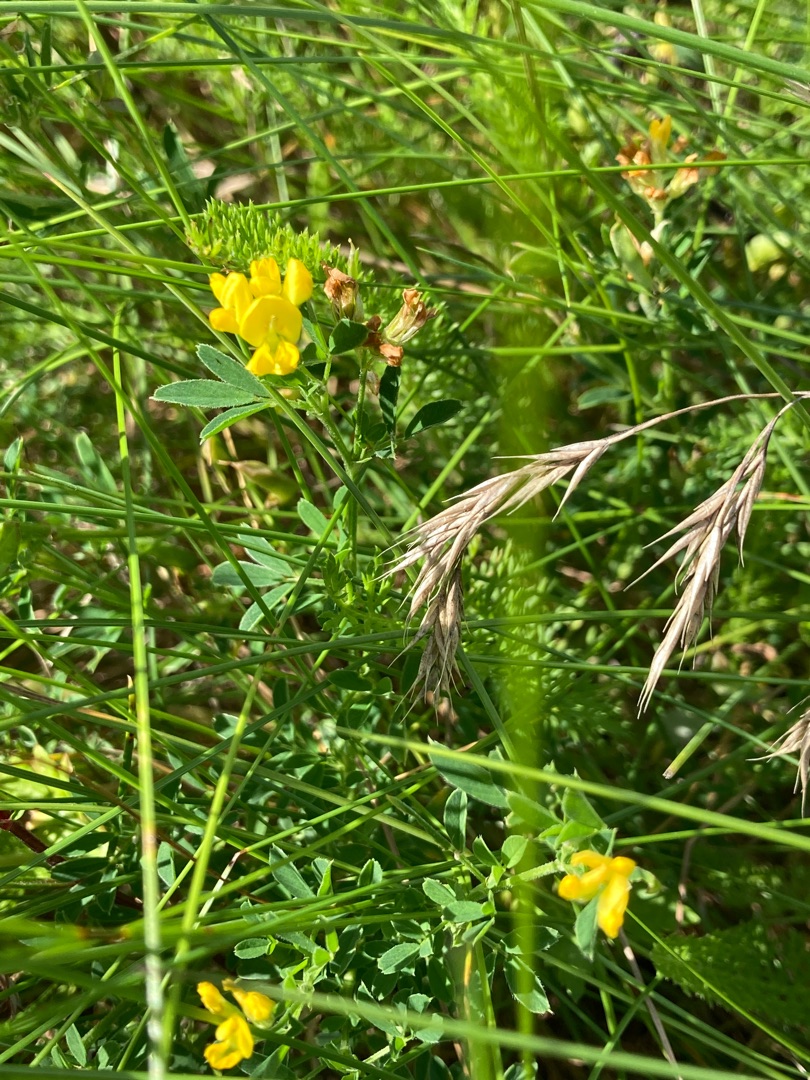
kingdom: Plantae
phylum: Tracheophyta
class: Magnoliopsida
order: Fabales
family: Fabaceae
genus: Medicago
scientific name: Medicago falcata
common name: Segl-sneglebælg
